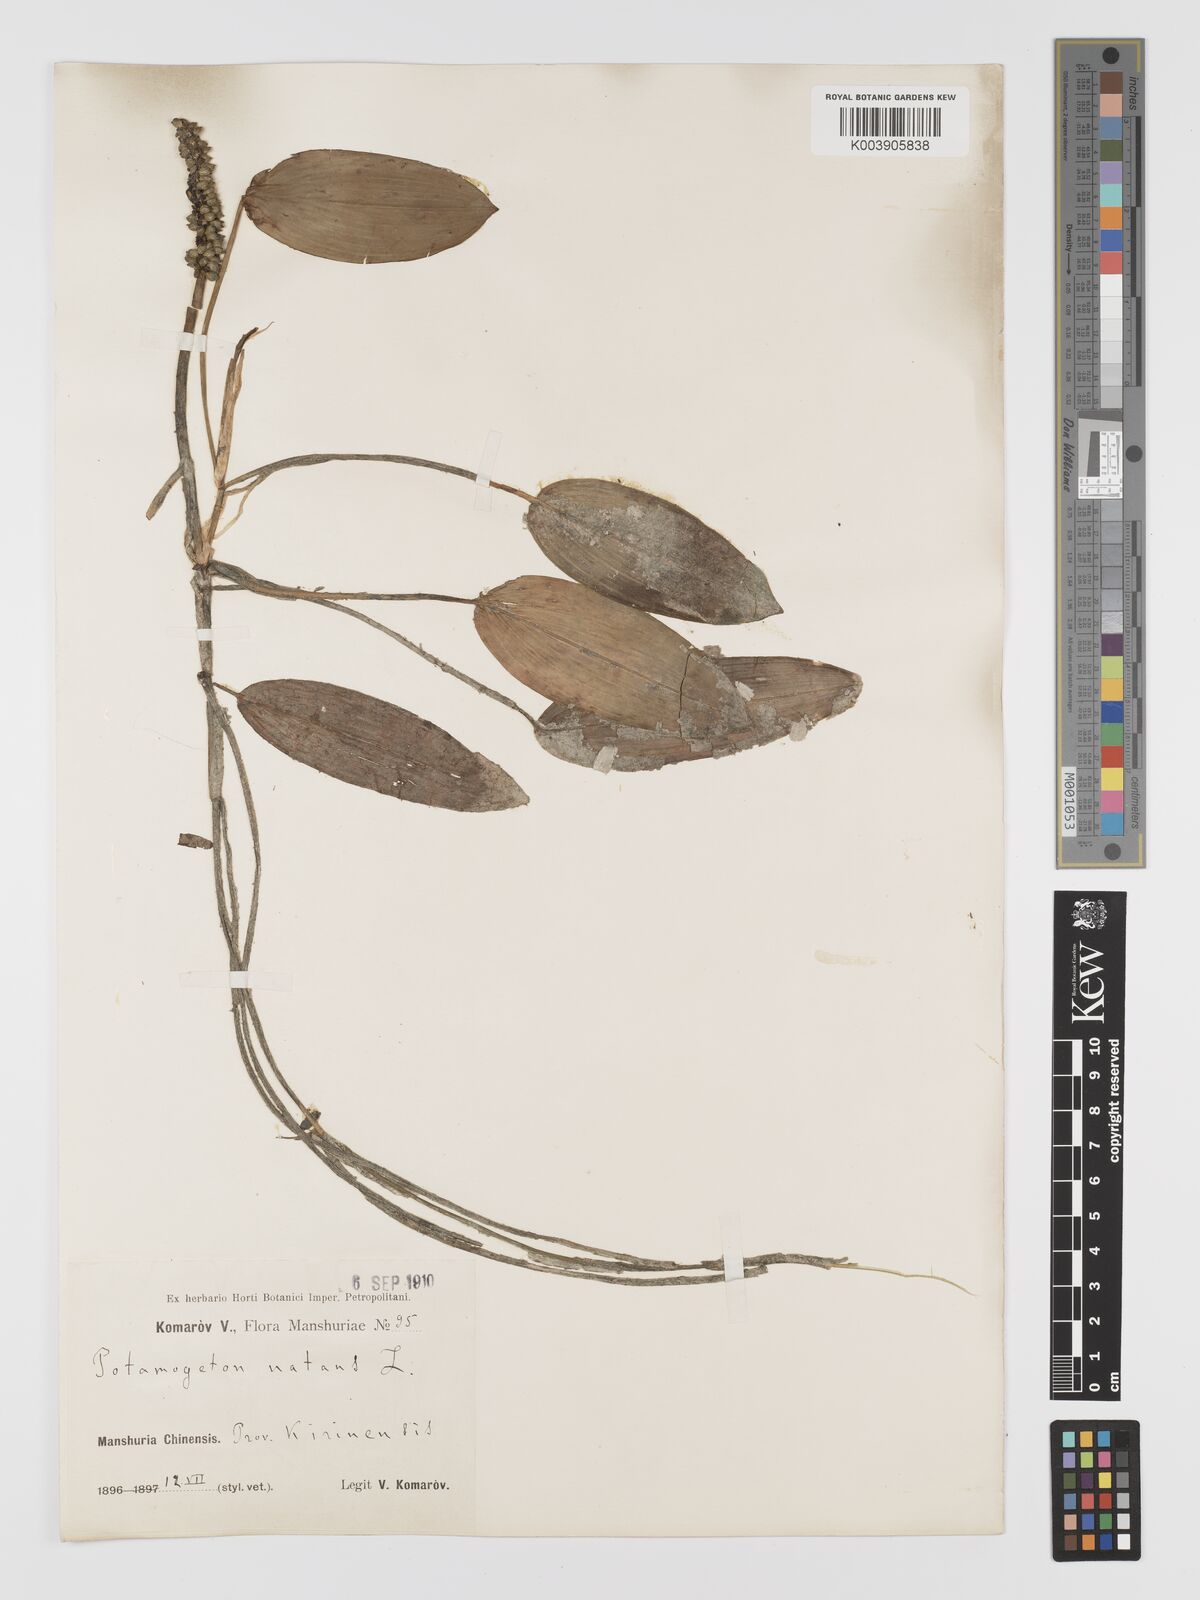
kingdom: Plantae
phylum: Tracheophyta
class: Liliopsida
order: Alismatales
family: Potamogetonaceae
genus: Potamogeton
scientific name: Potamogeton natans
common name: Broad-leaved pondweed
